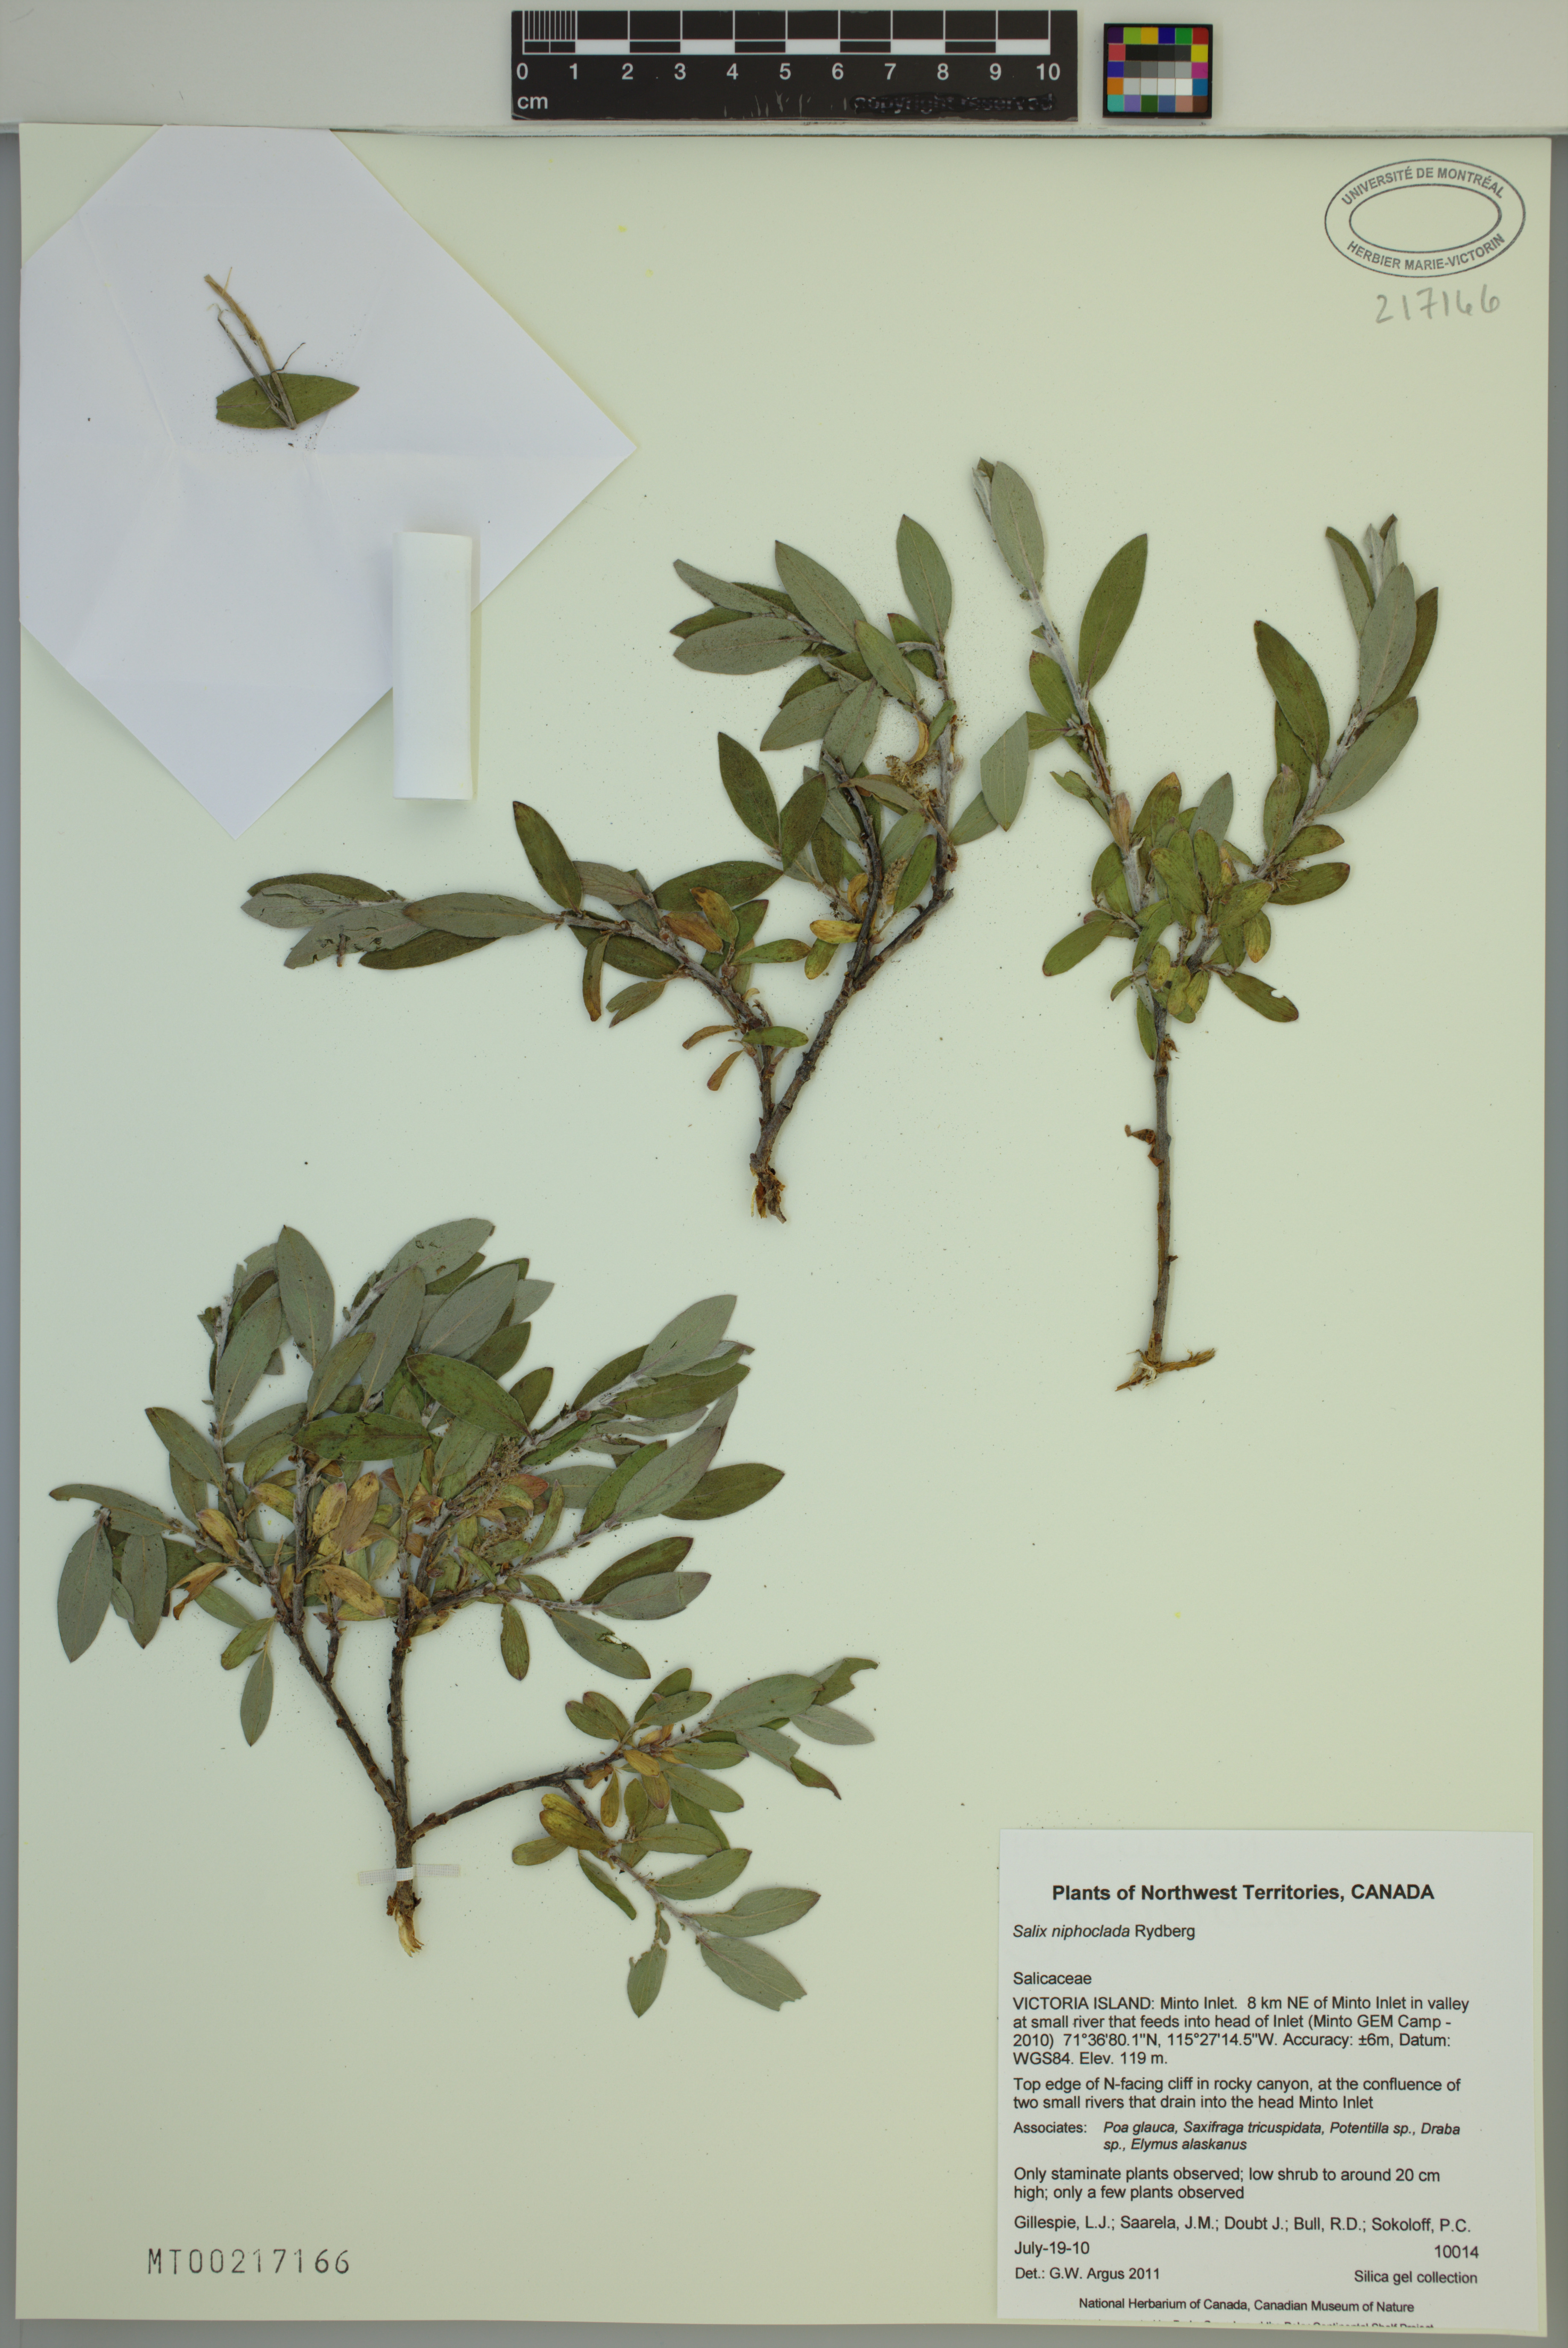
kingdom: Plantae
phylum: Tracheophyta
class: Magnoliopsida
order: Malpighiales
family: Salicaceae
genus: Salix
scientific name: Salix niphoclada
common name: Barren-ground willow
